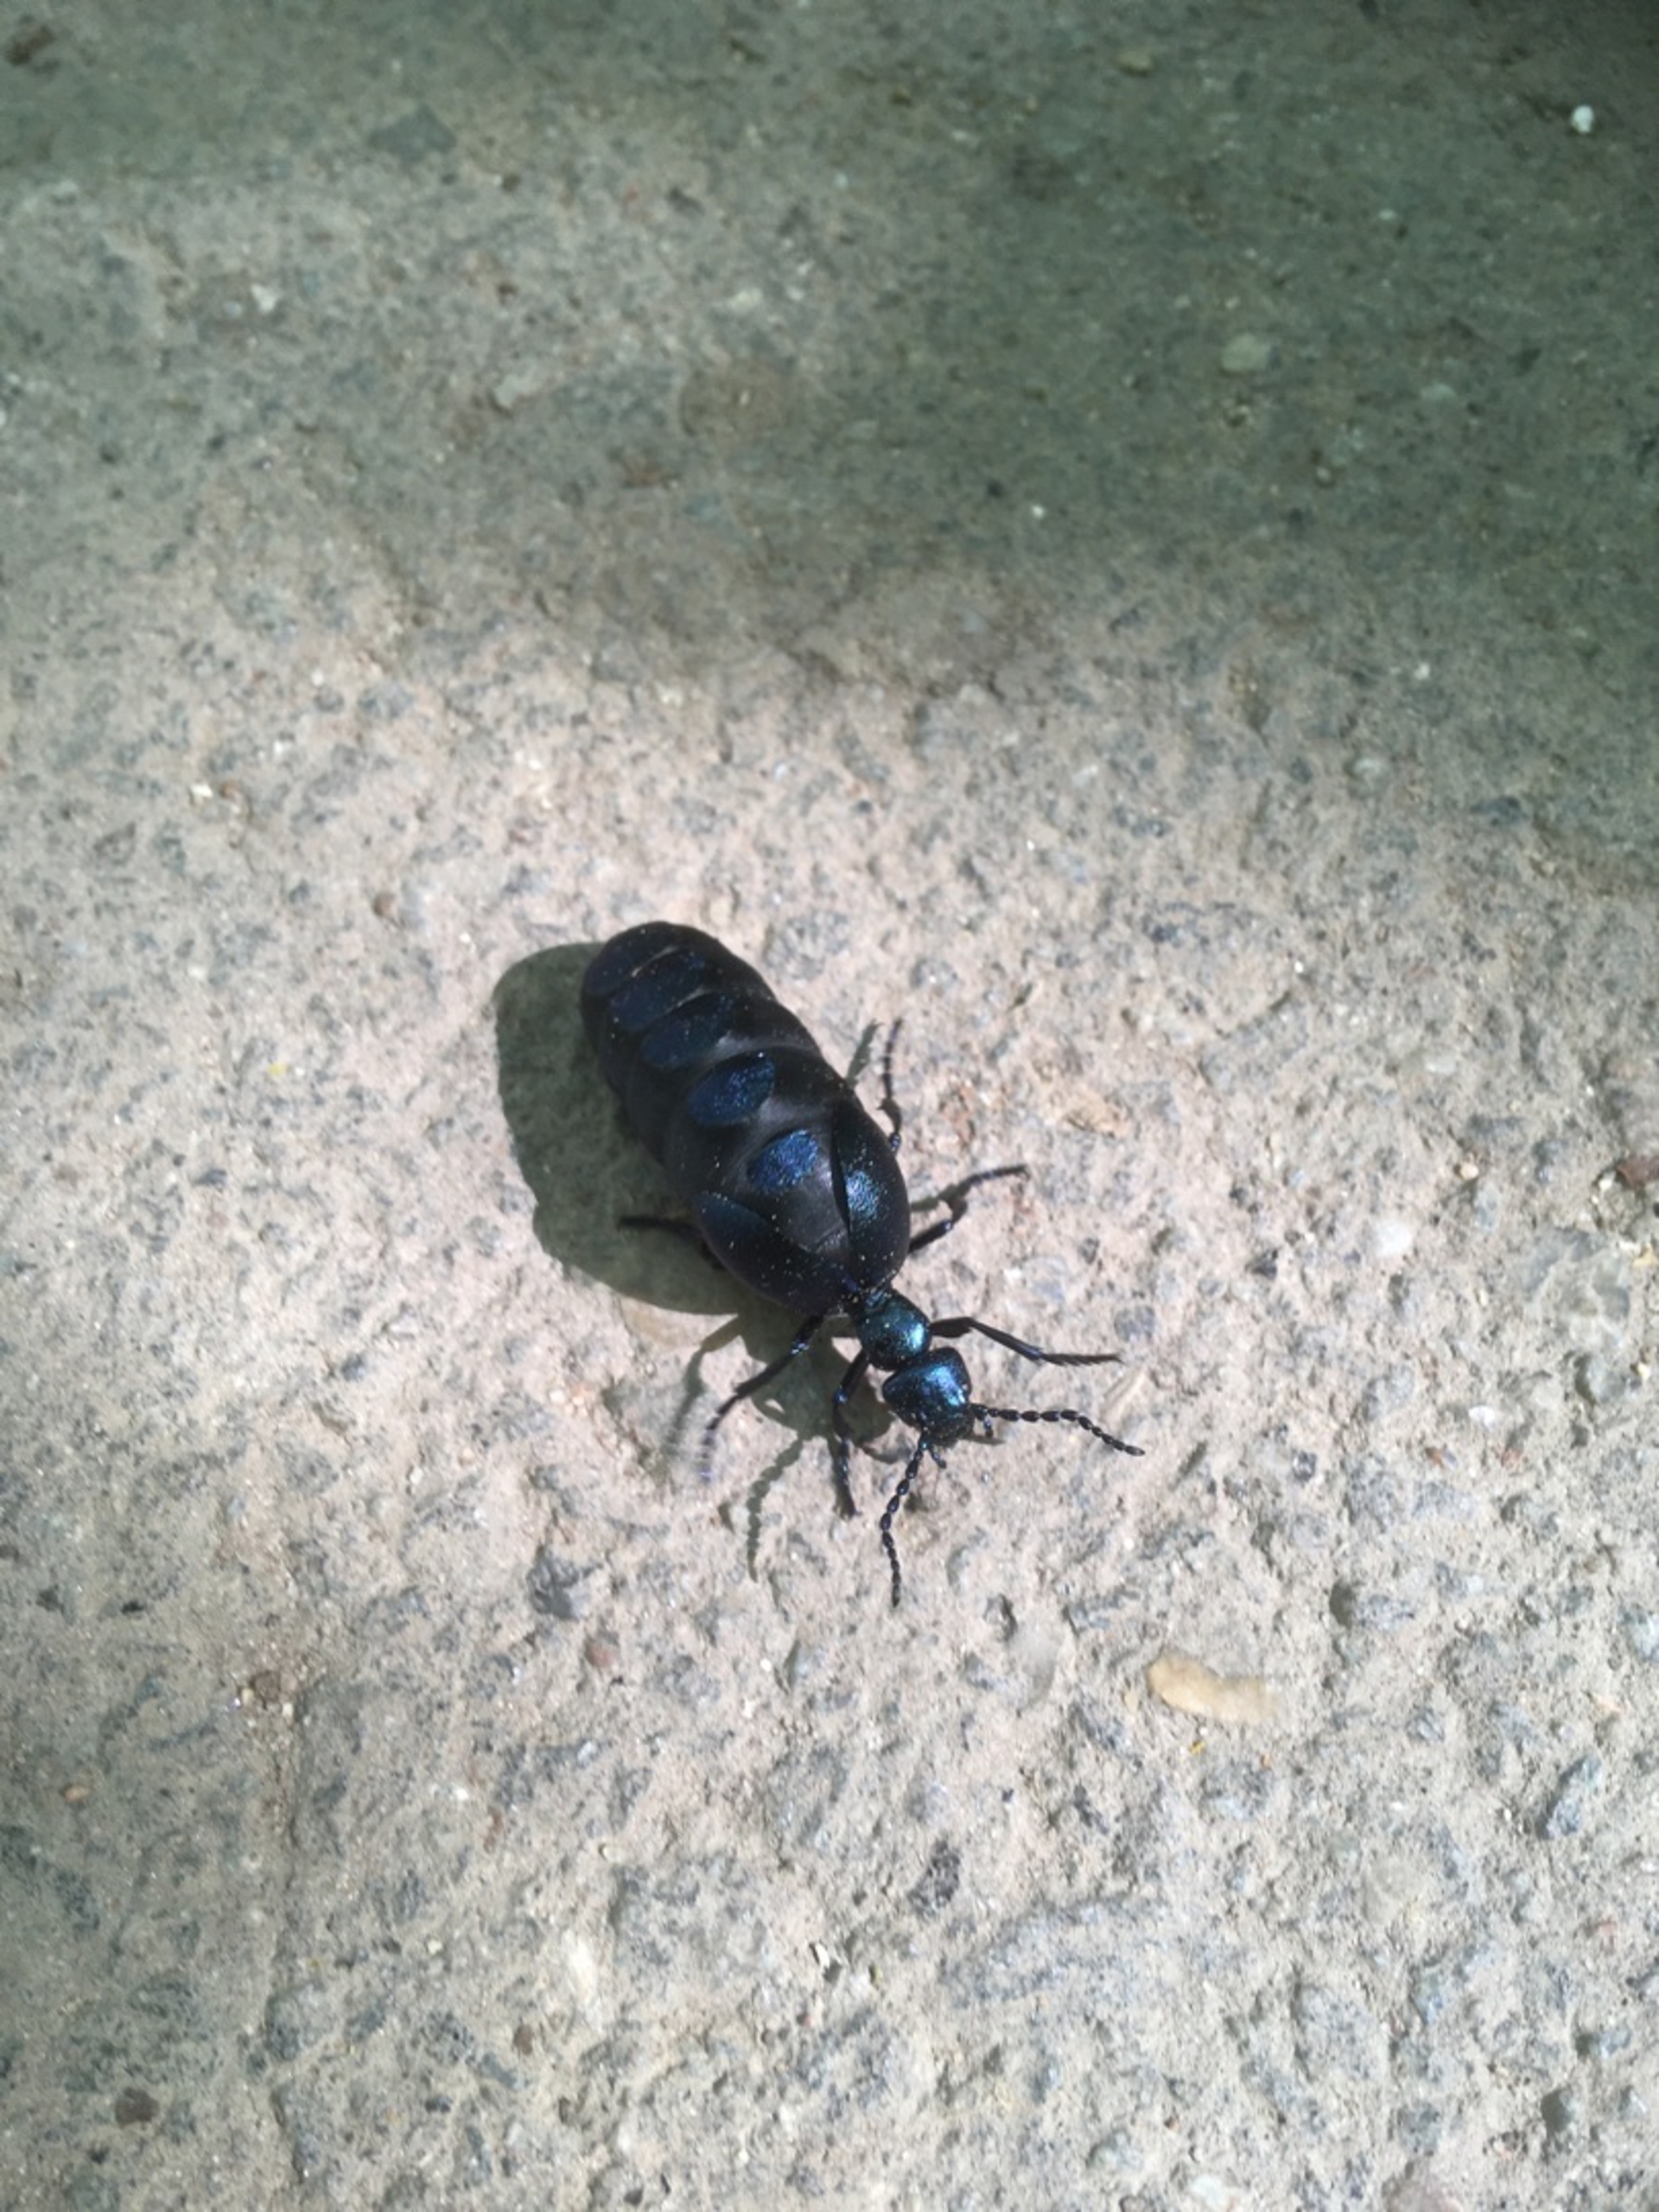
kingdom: Animalia
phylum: Arthropoda
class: Insecta
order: Coleoptera
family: Meloidae
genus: Meloe
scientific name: Meloe violaceus
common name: Blå oliebille
